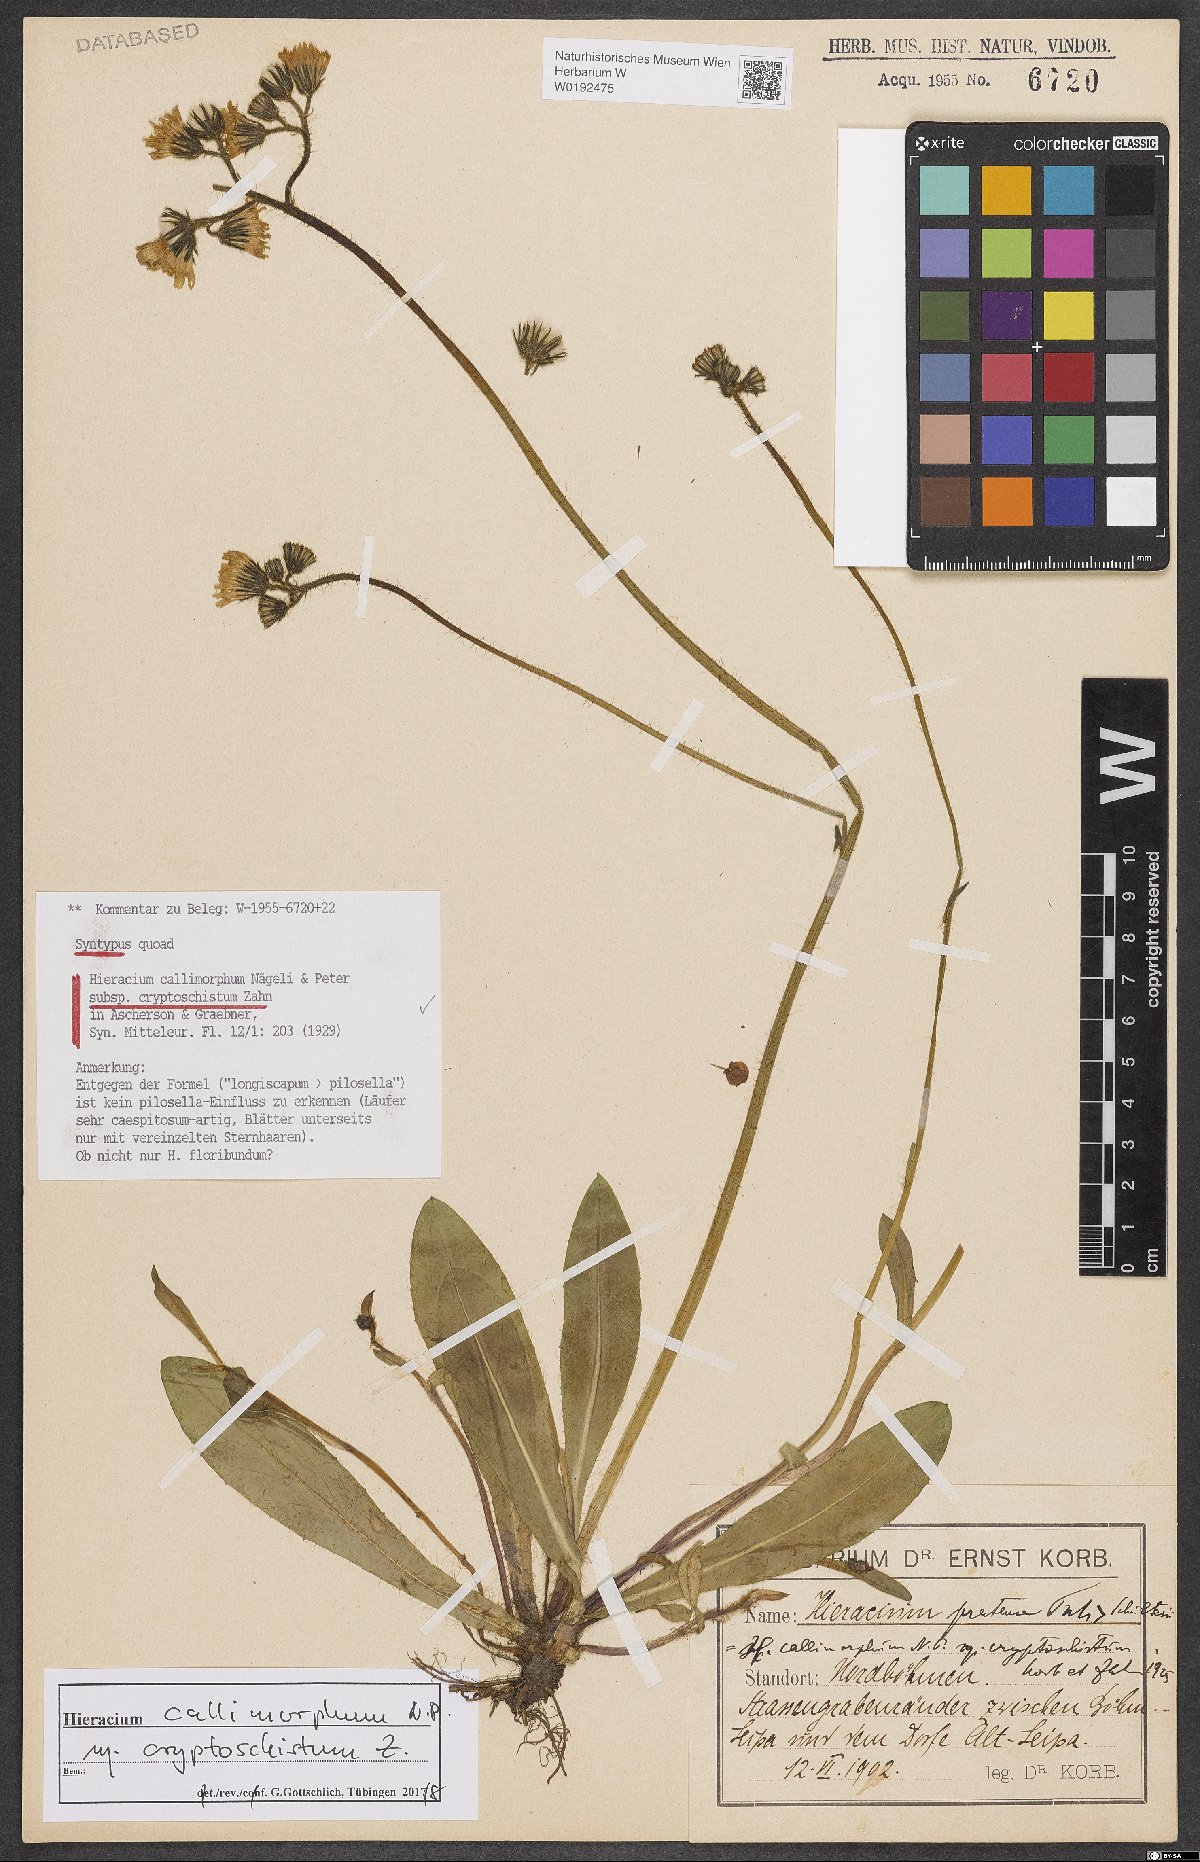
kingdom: Plantae
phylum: Tracheophyta
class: Magnoliopsida
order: Asterales
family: Asteraceae
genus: Pilosella
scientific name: Pilosella iserana
